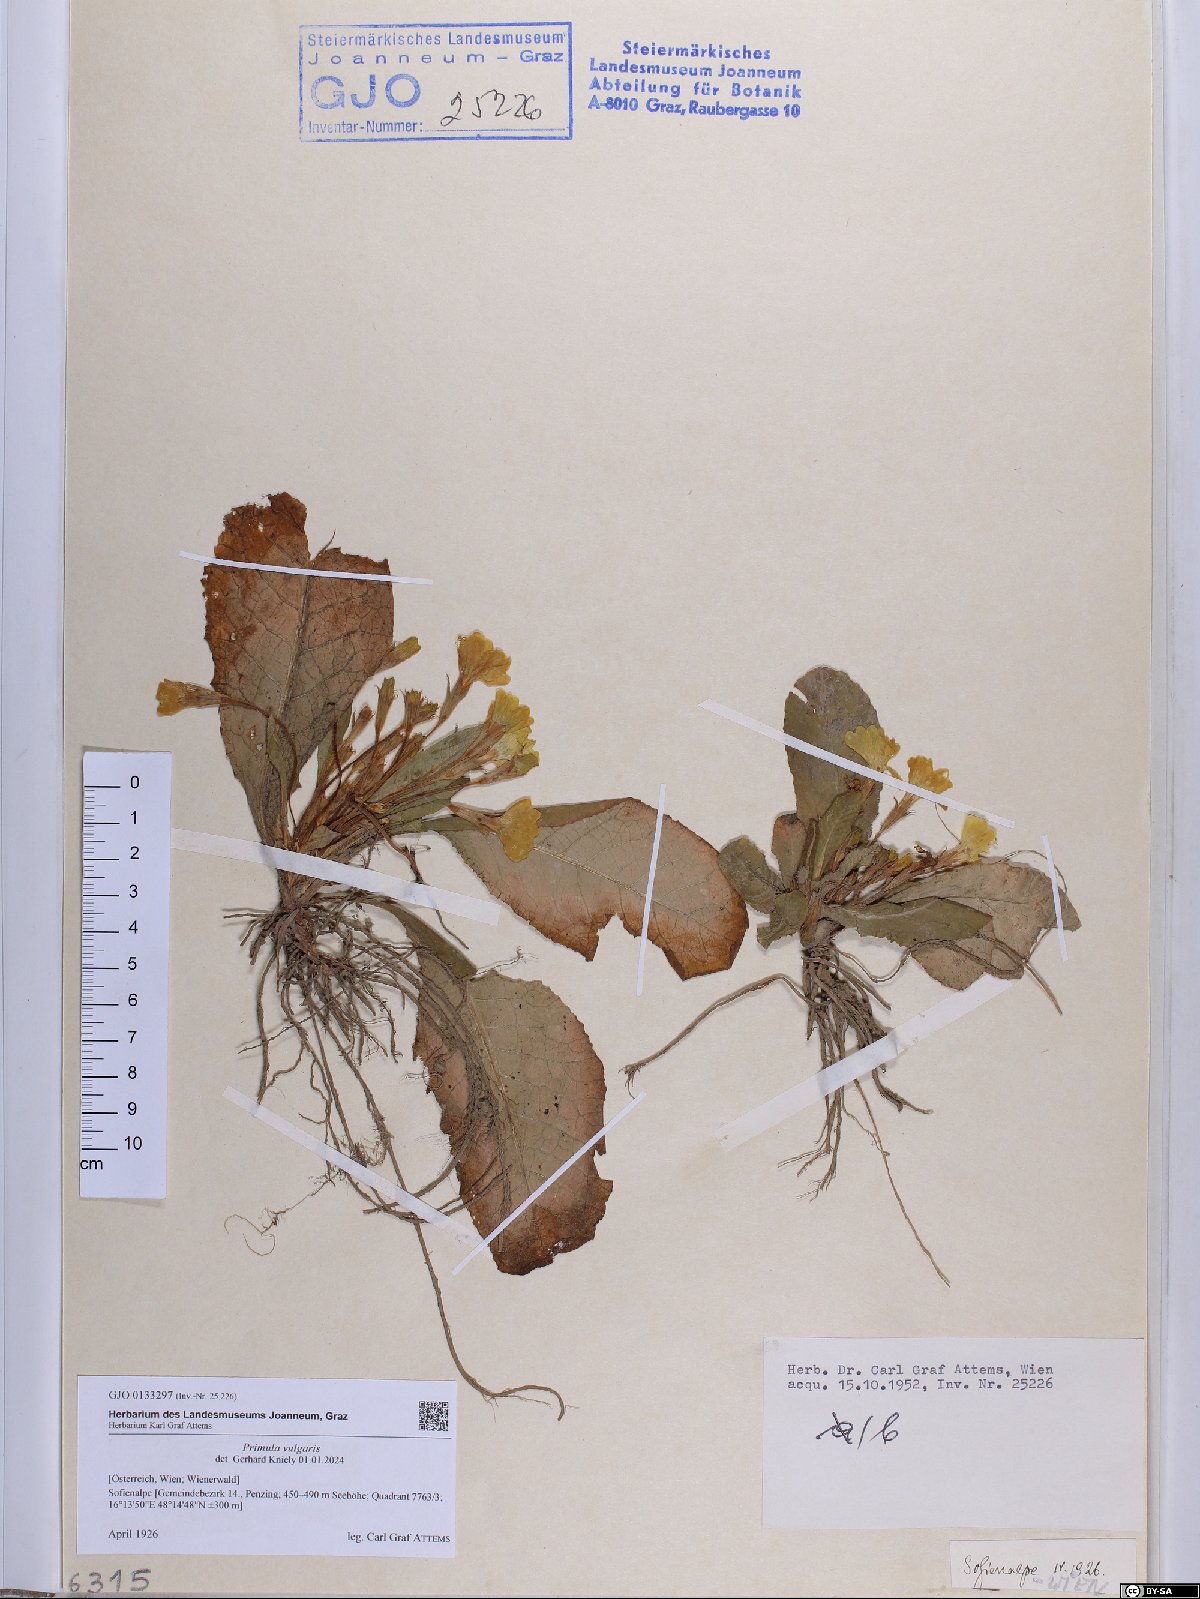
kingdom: Plantae
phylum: Tracheophyta
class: Magnoliopsida
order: Ericales
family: Primulaceae
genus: Primula
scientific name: Primula vulgaris
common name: Primrose
